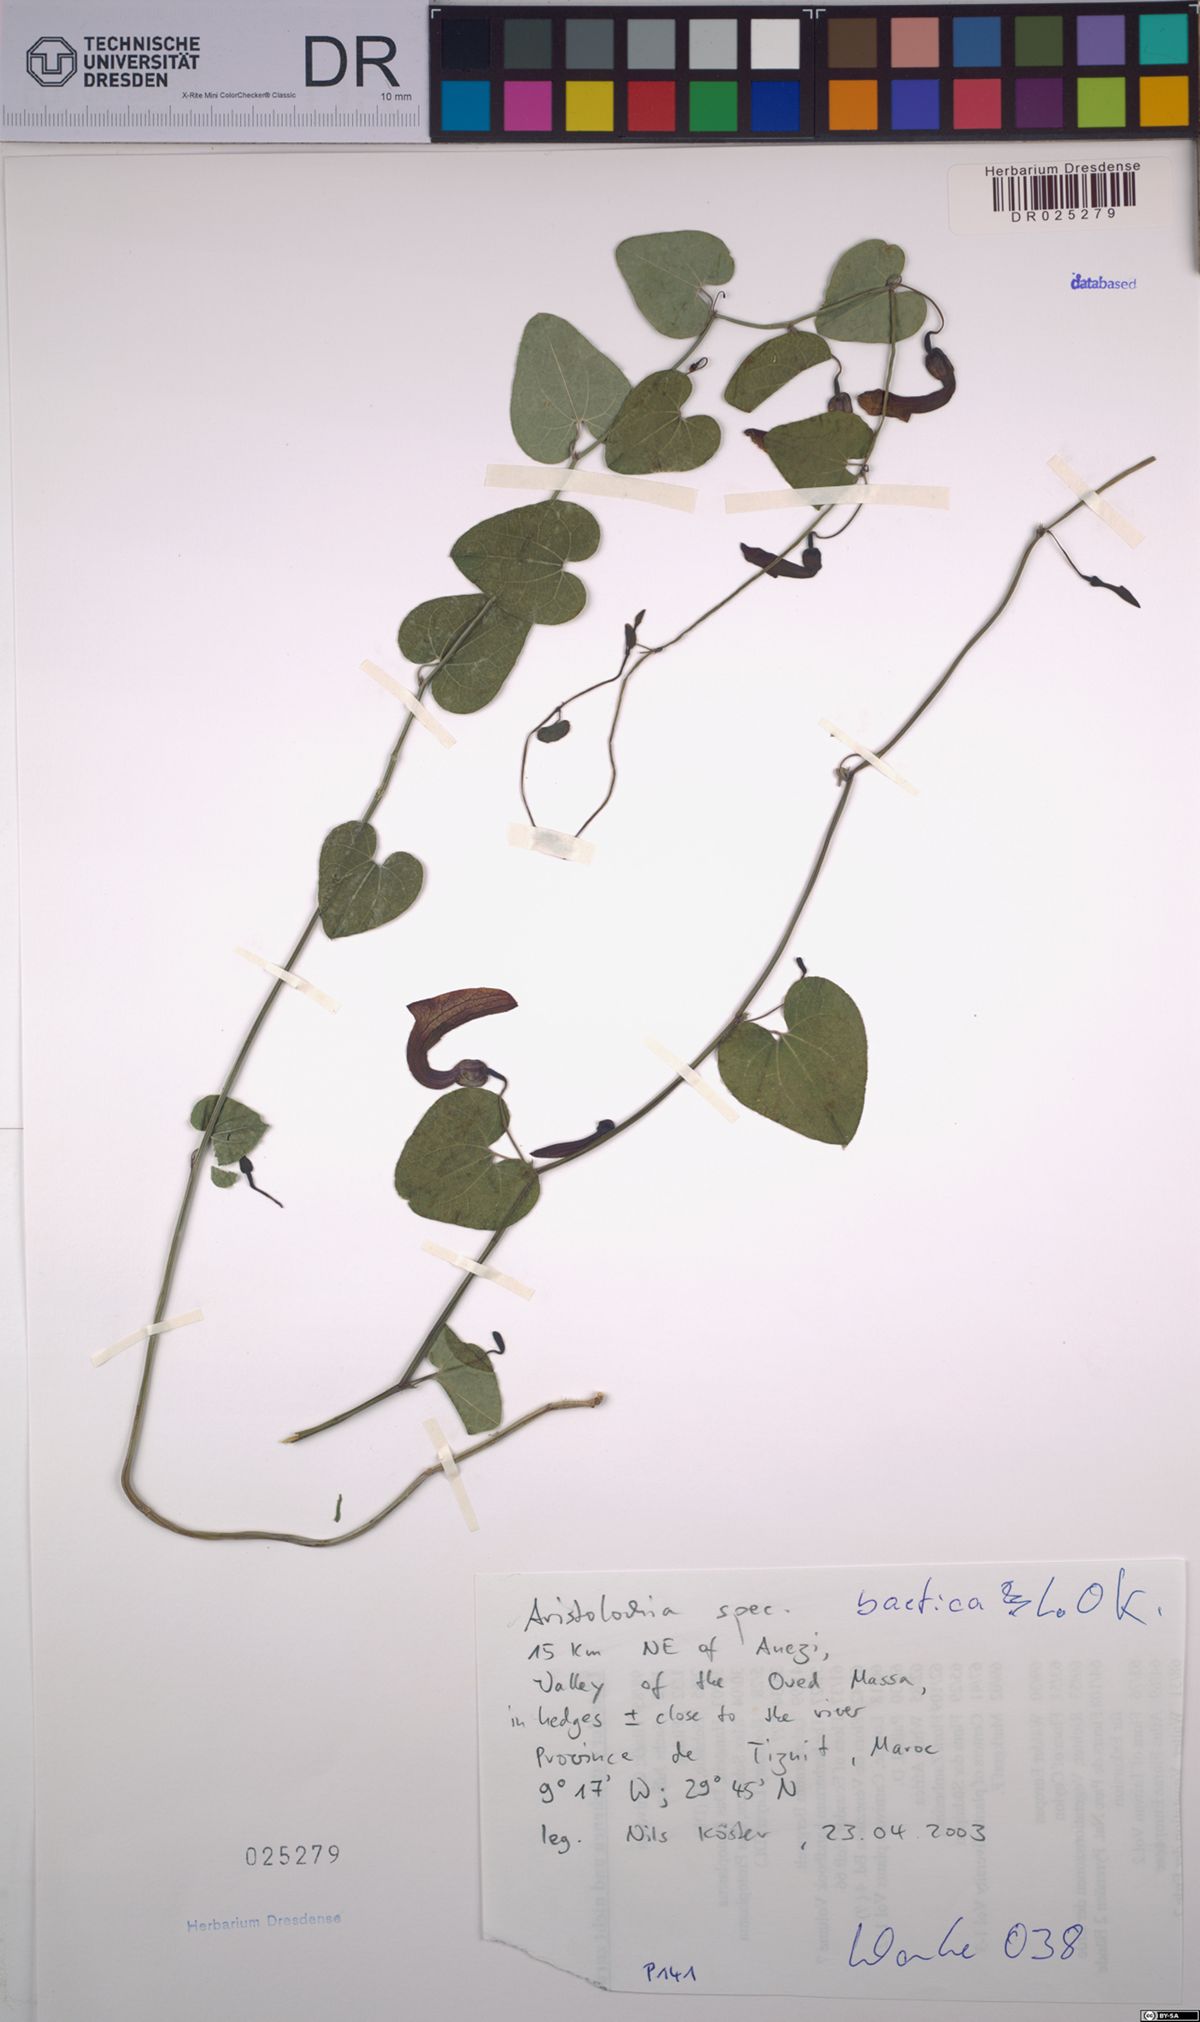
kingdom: Plantae
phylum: Tracheophyta
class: Magnoliopsida
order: Piperales
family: Aristolochiaceae
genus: Aristolochia
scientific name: Aristolochia baetica
